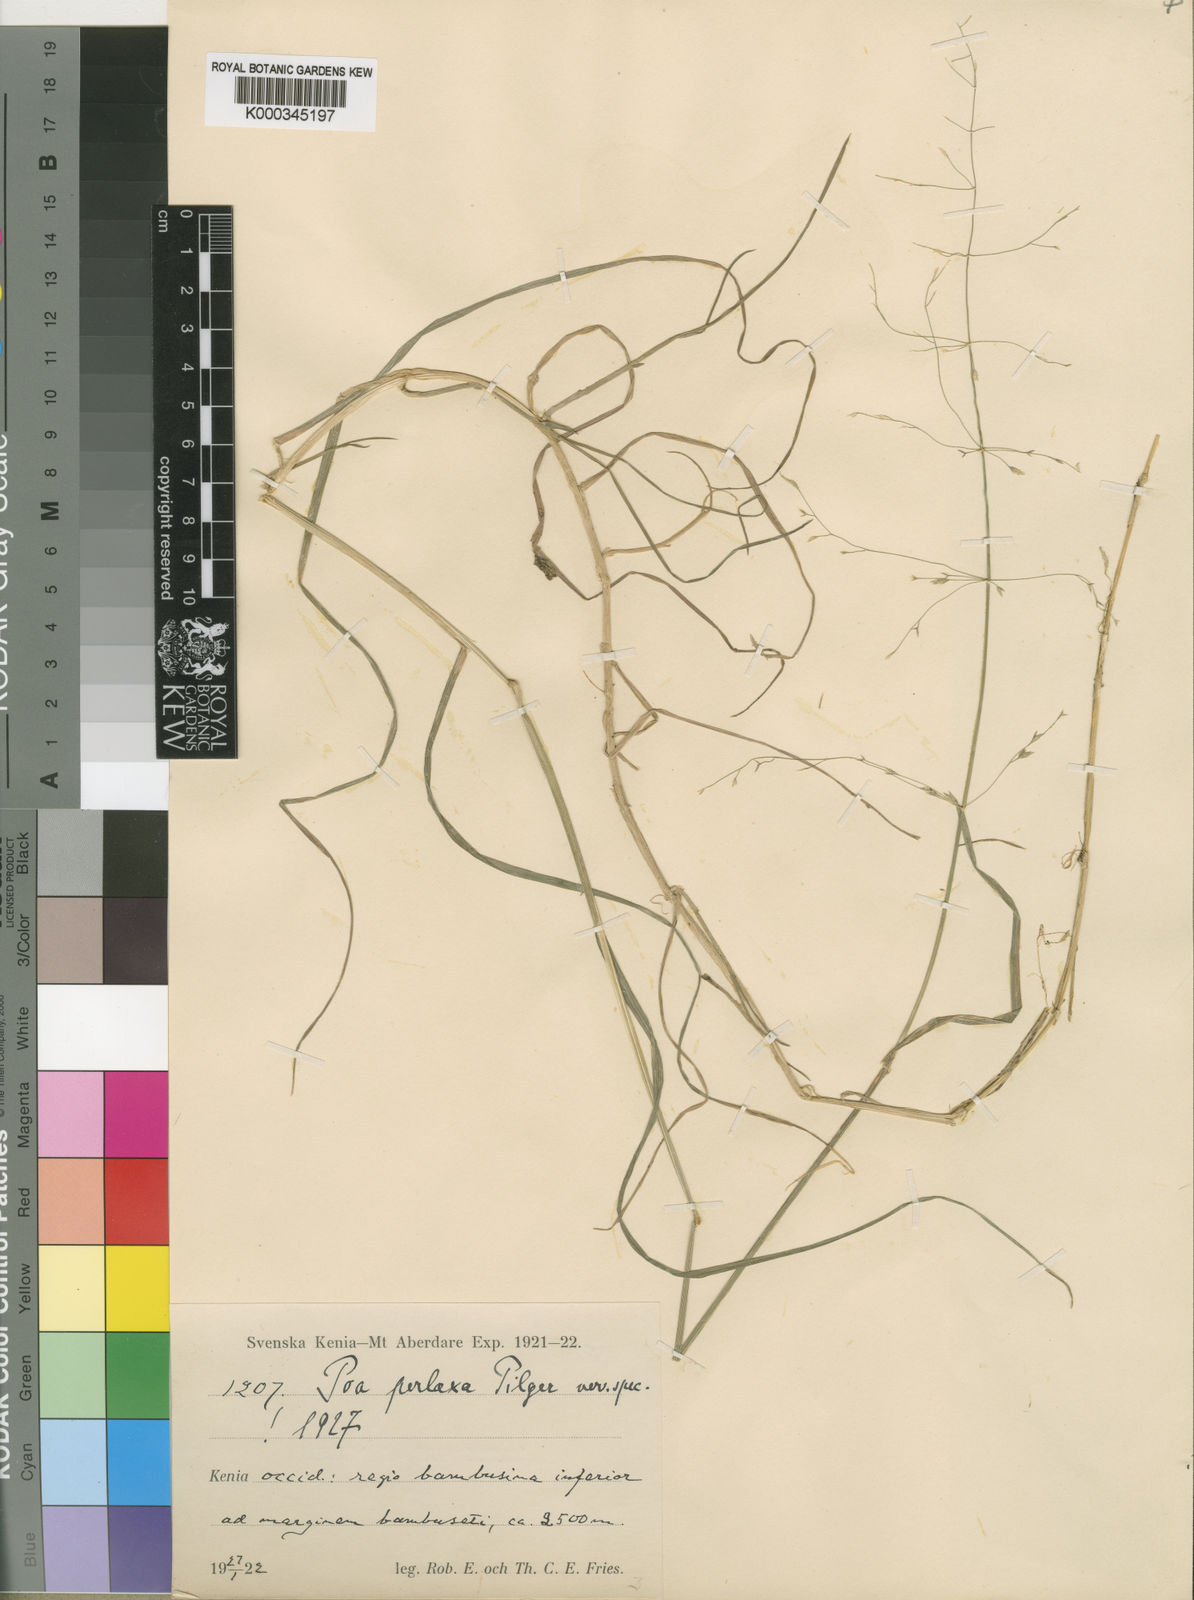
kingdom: Plantae
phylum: Tracheophyta
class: Liliopsida
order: Poales
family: Poaceae
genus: Poa
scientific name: Poa schimperiana
